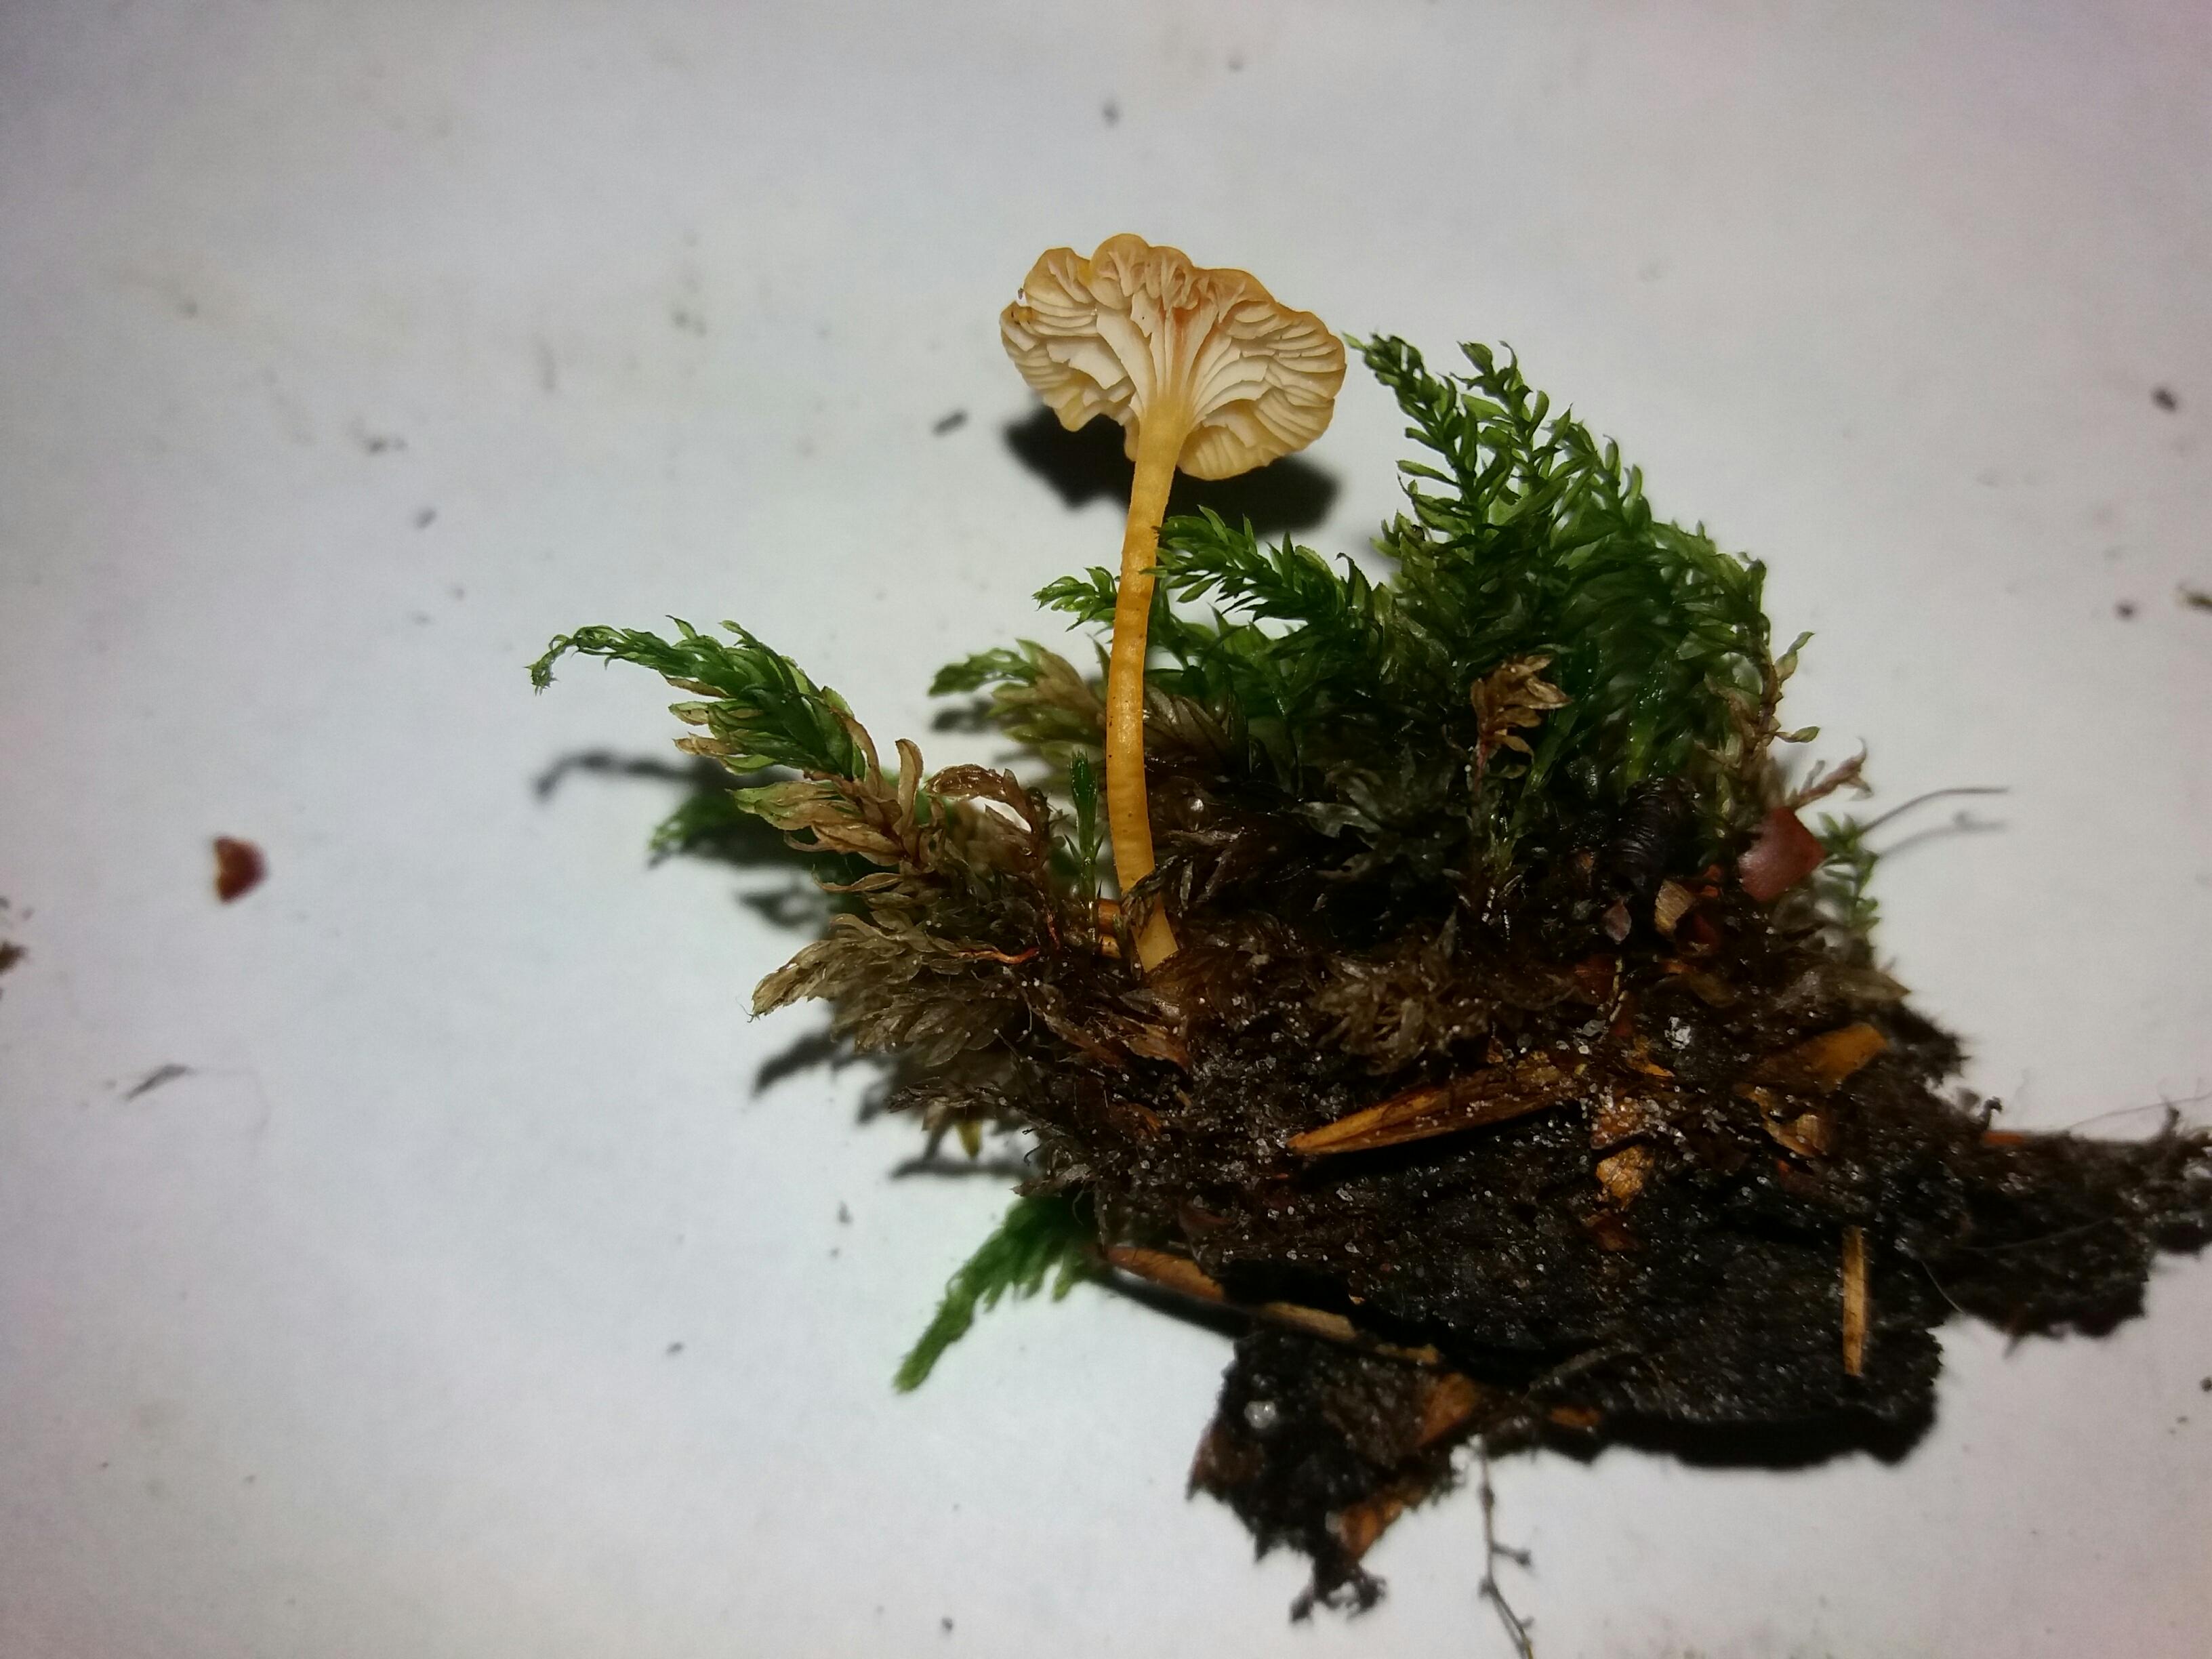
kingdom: Fungi
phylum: Basidiomycota
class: Agaricomycetes
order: Hymenochaetales
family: Rickenellaceae
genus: Rickenella
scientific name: Rickenella fibula
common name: orange mosnavlehat
